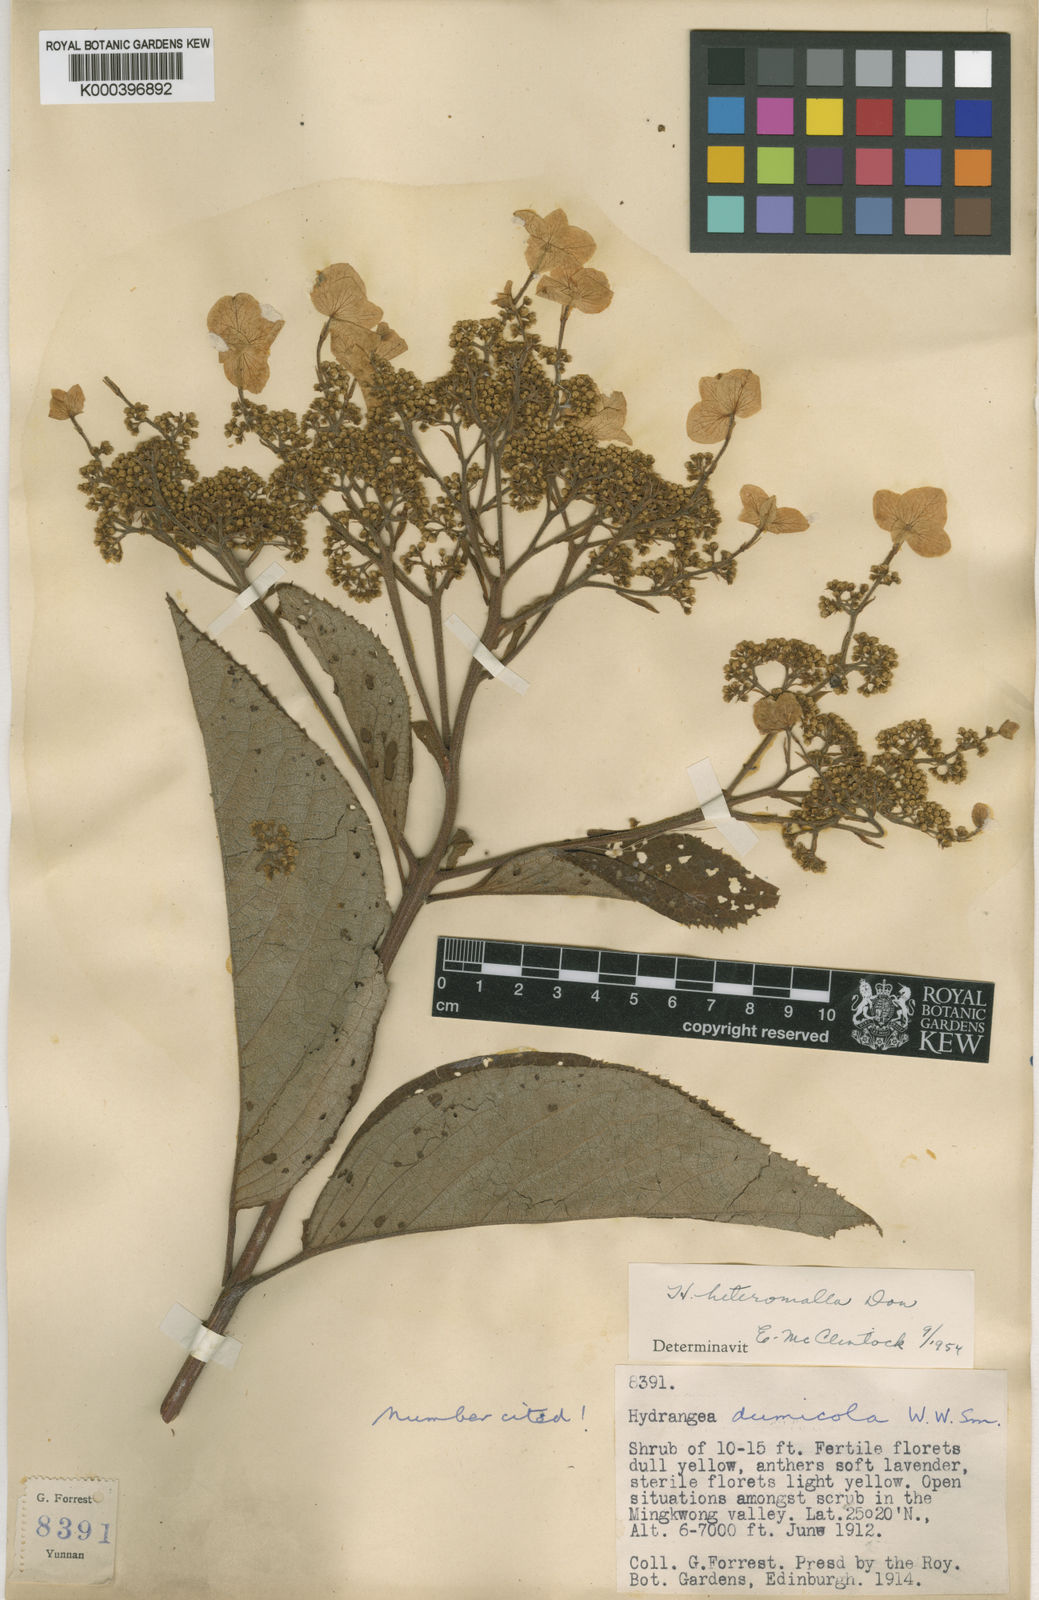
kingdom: Plantae
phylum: Tracheophyta
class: Magnoliopsida
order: Cornales
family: Hydrangeaceae
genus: Hydrangea
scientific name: Hydrangea heteromalla
